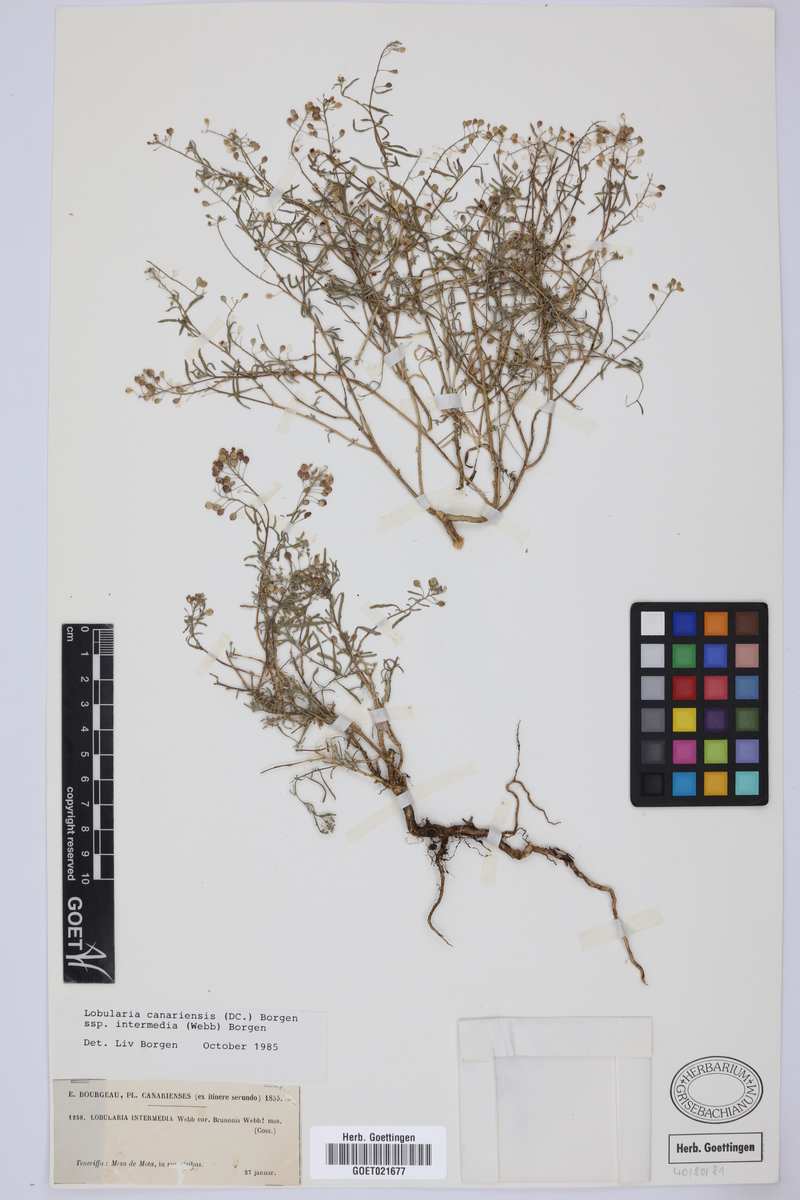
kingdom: Plantae
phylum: Tracheophyta
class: Magnoliopsida
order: Brassicales
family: Brassicaceae
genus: Lobularia
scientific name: Lobularia canariensis
